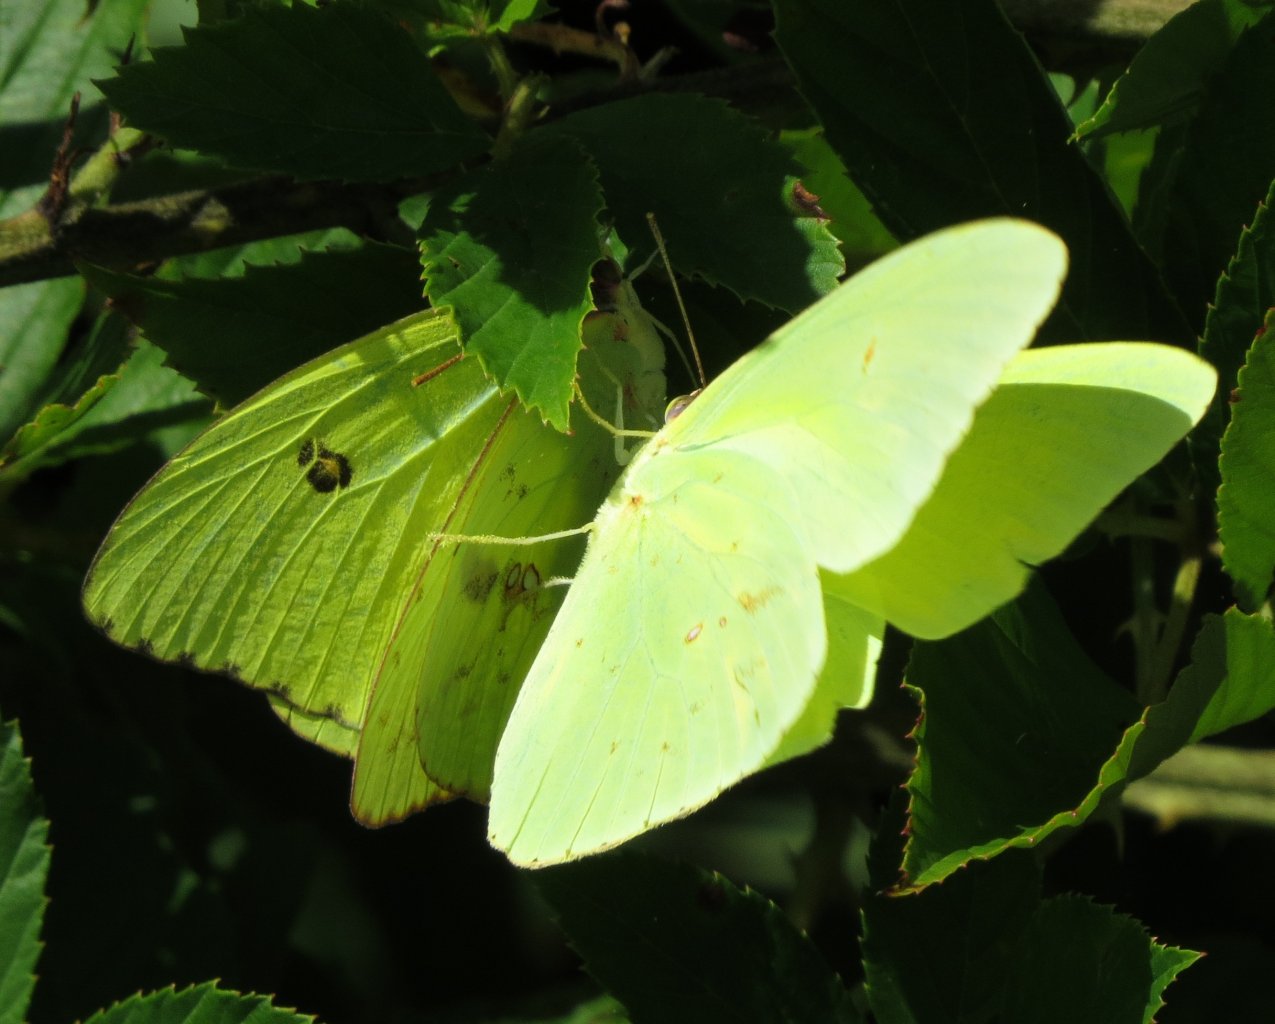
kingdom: Animalia
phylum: Arthropoda
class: Insecta
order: Lepidoptera
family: Pieridae
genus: Phoebis
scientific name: Phoebis sennae
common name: Cloudless Sulphur
